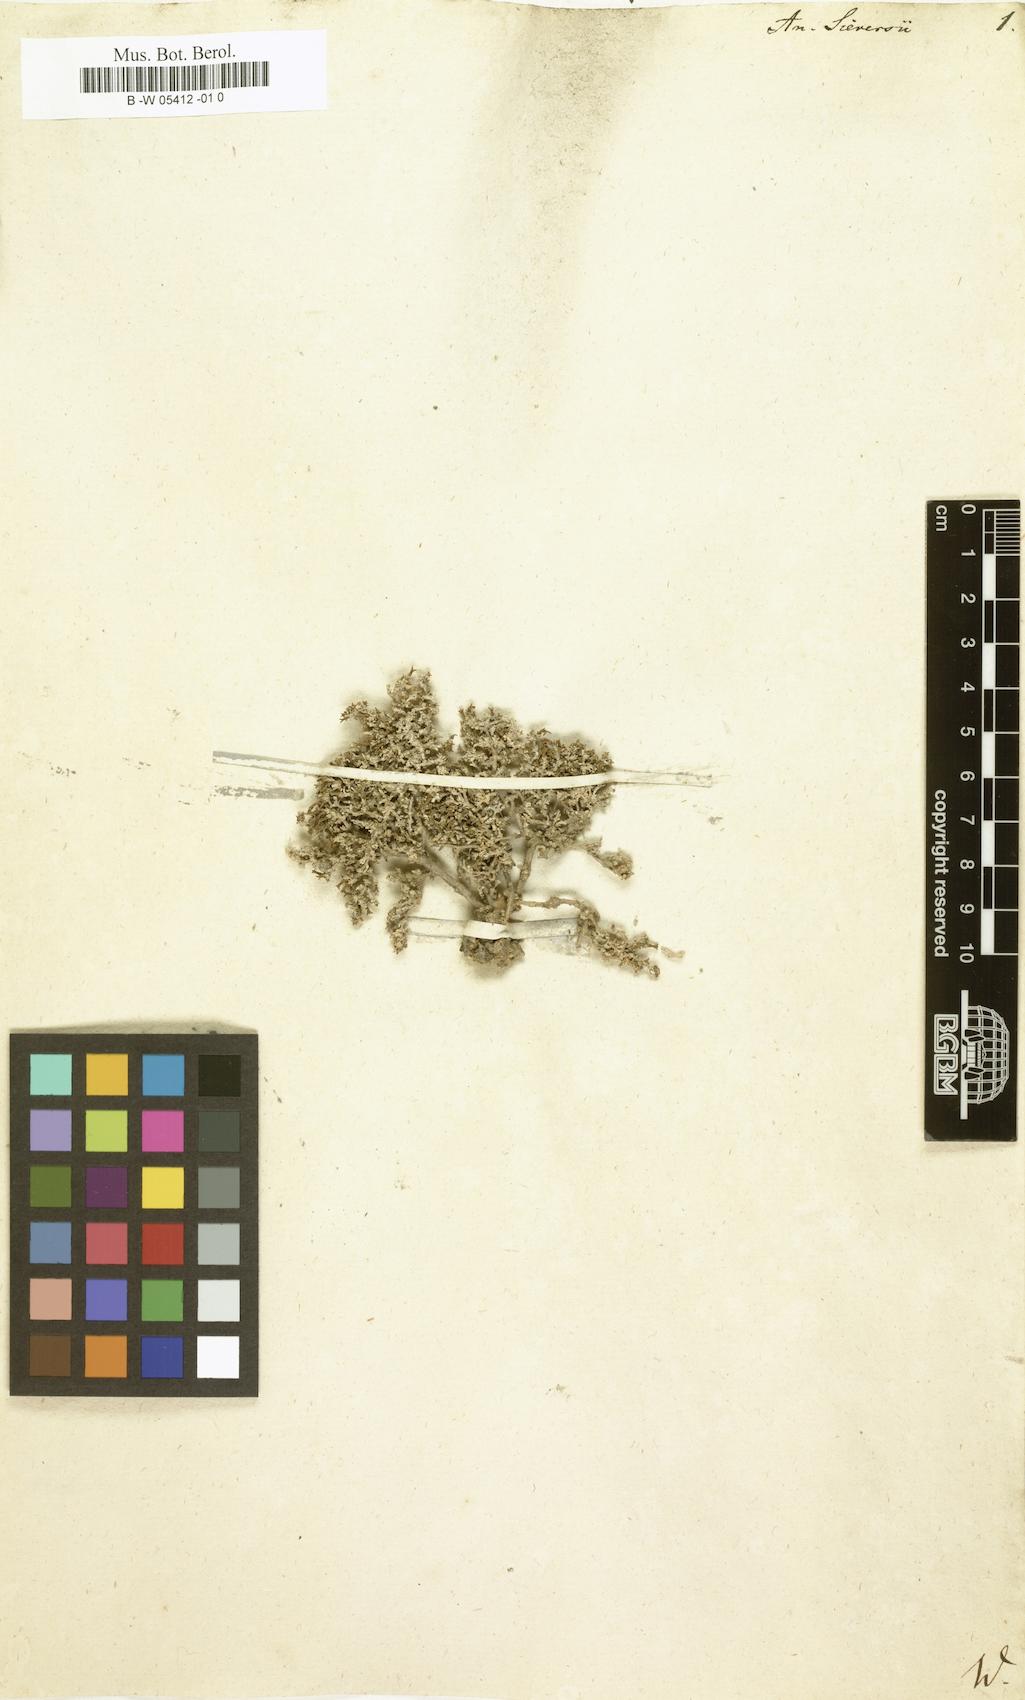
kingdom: Plantae
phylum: Tracheophyta
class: Magnoliopsida
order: Caryophyllales
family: Amaranthaceae
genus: Nanophyton
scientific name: Nanophyton erinaceum
